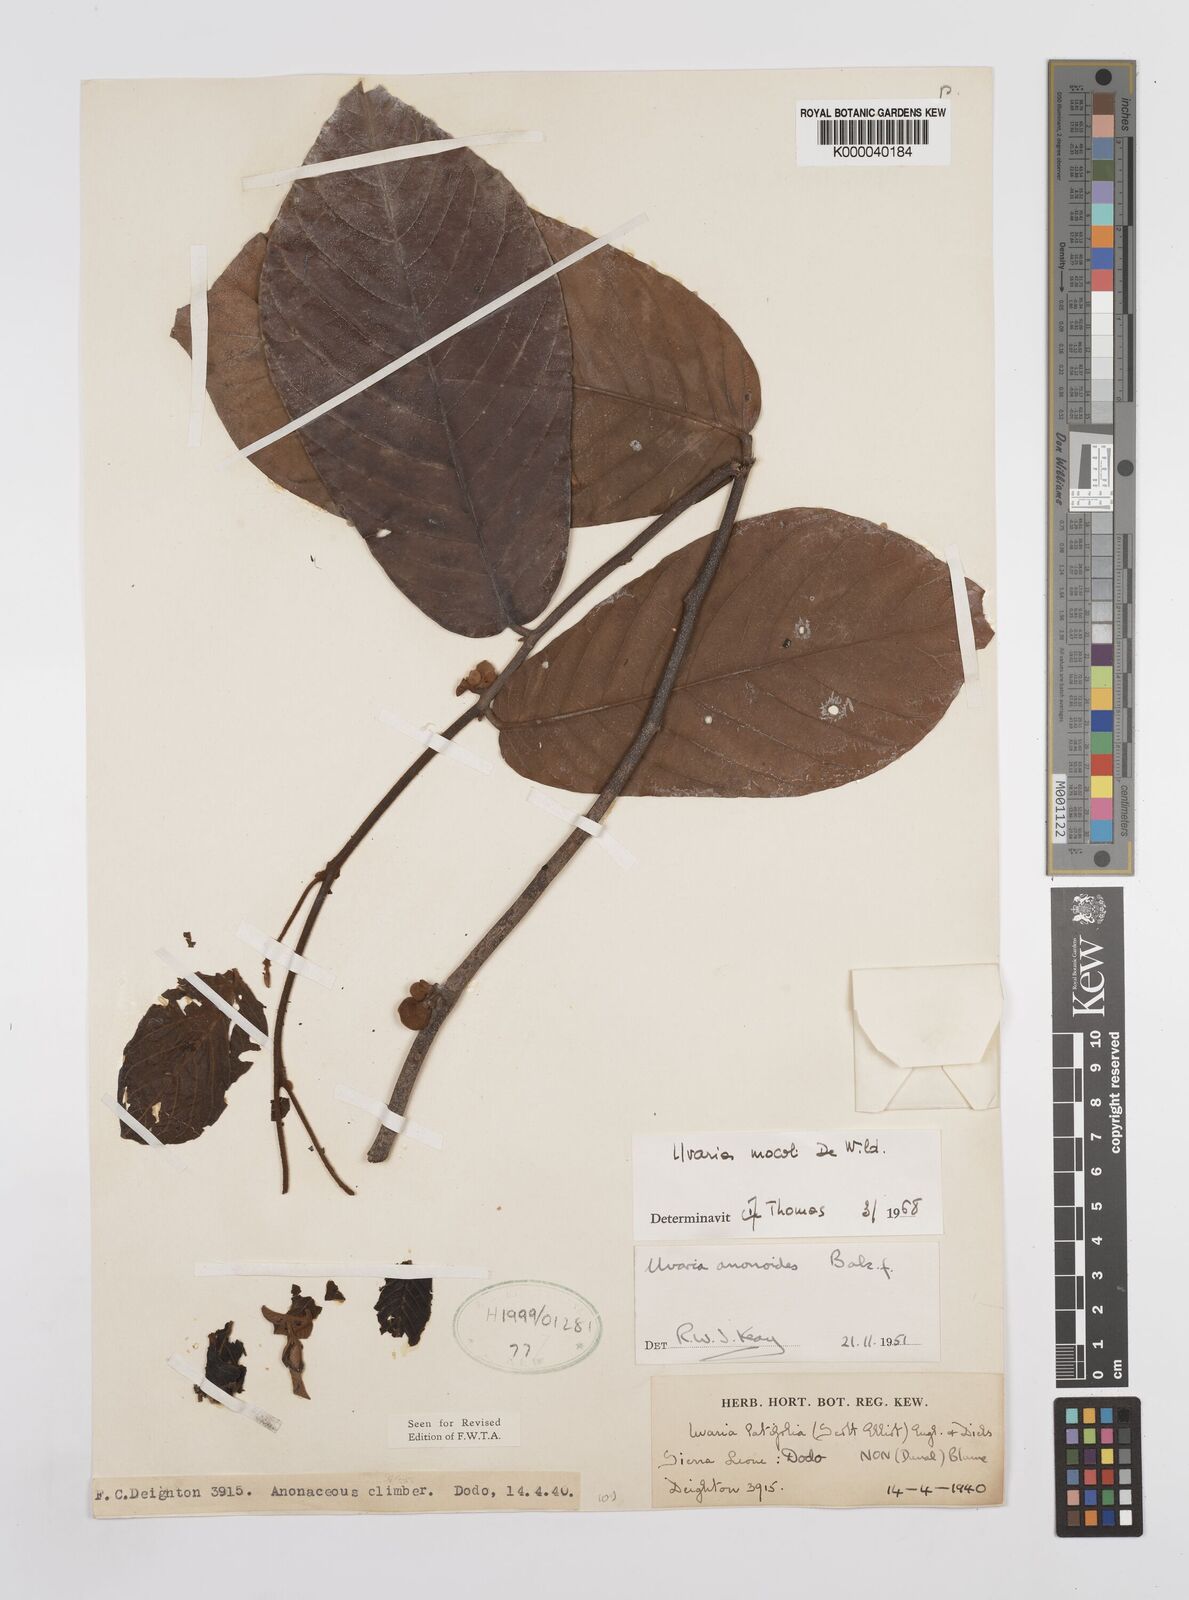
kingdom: Plantae
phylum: Tracheophyta
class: Magnoliopsida
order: Magnoliales
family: Annonaceae
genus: Uvaria
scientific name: Uvaria mocoli
